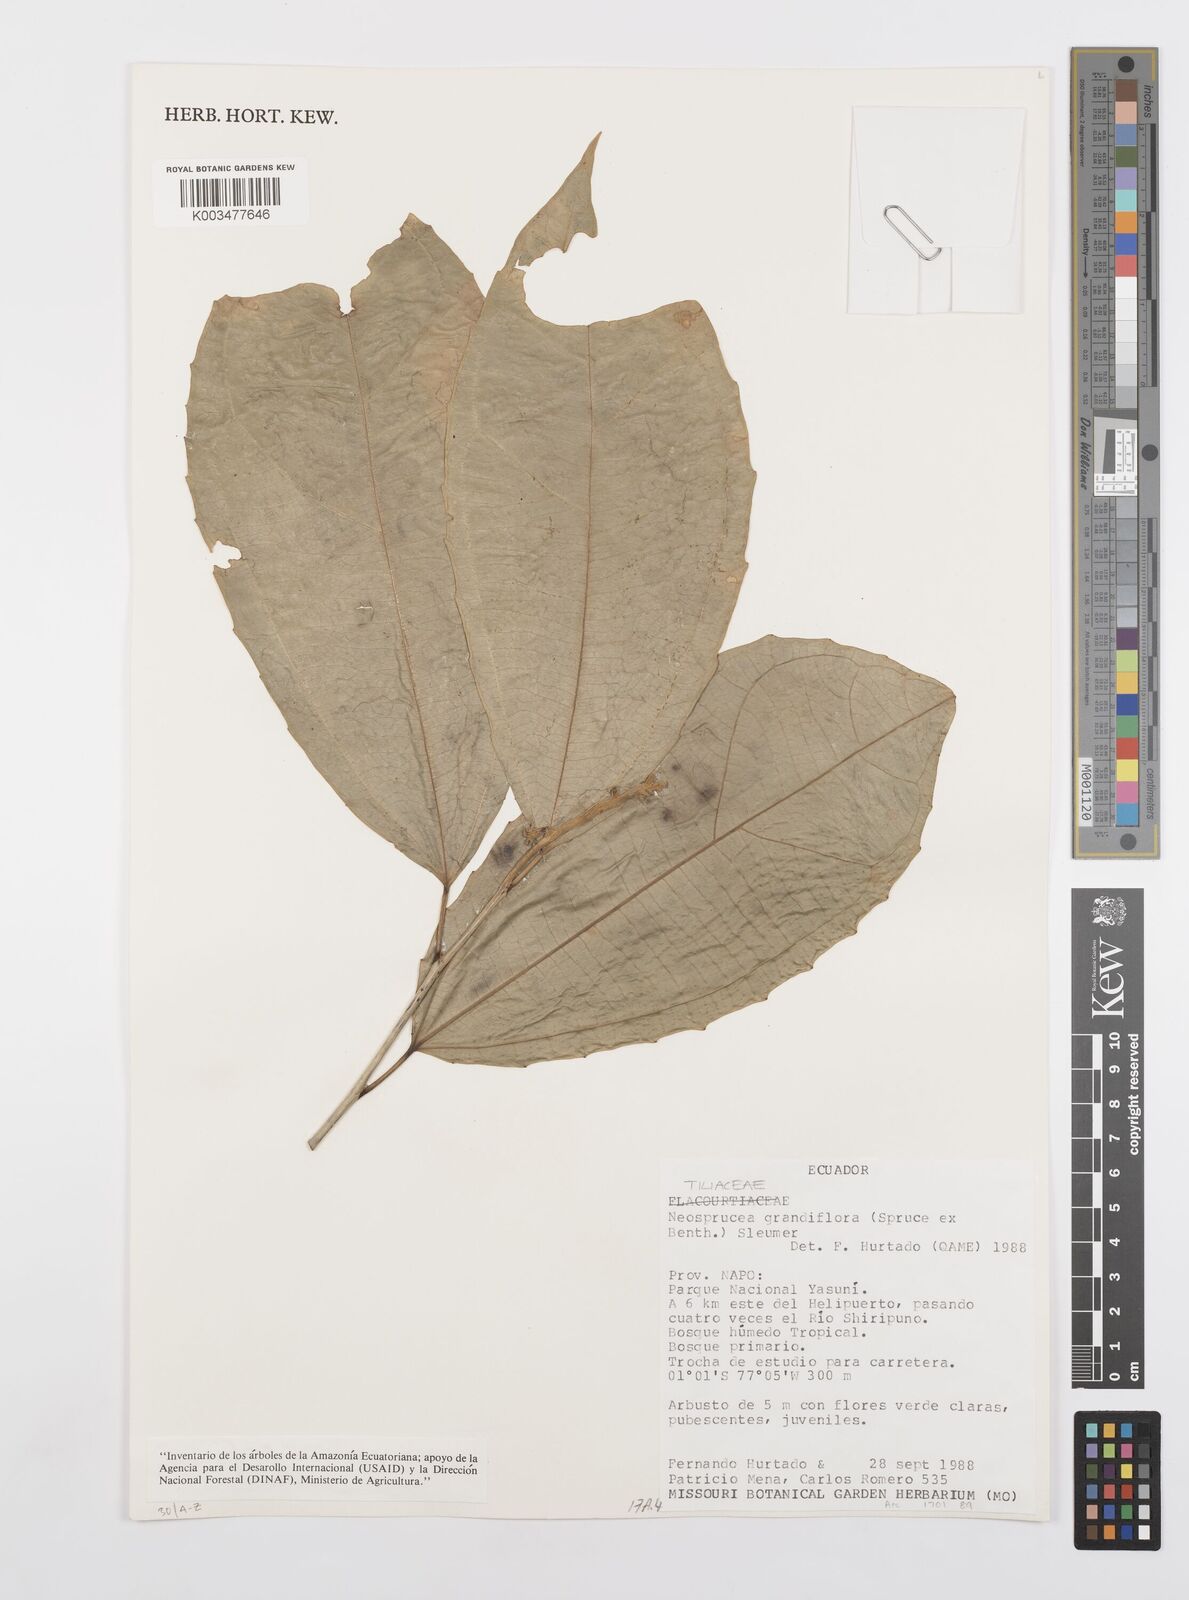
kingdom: Plantae
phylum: Tracheophyta
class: Magnoliopsida
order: Malpighiales
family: Salicaceae
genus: Neosprucea
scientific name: Neosprucea grandiflora
